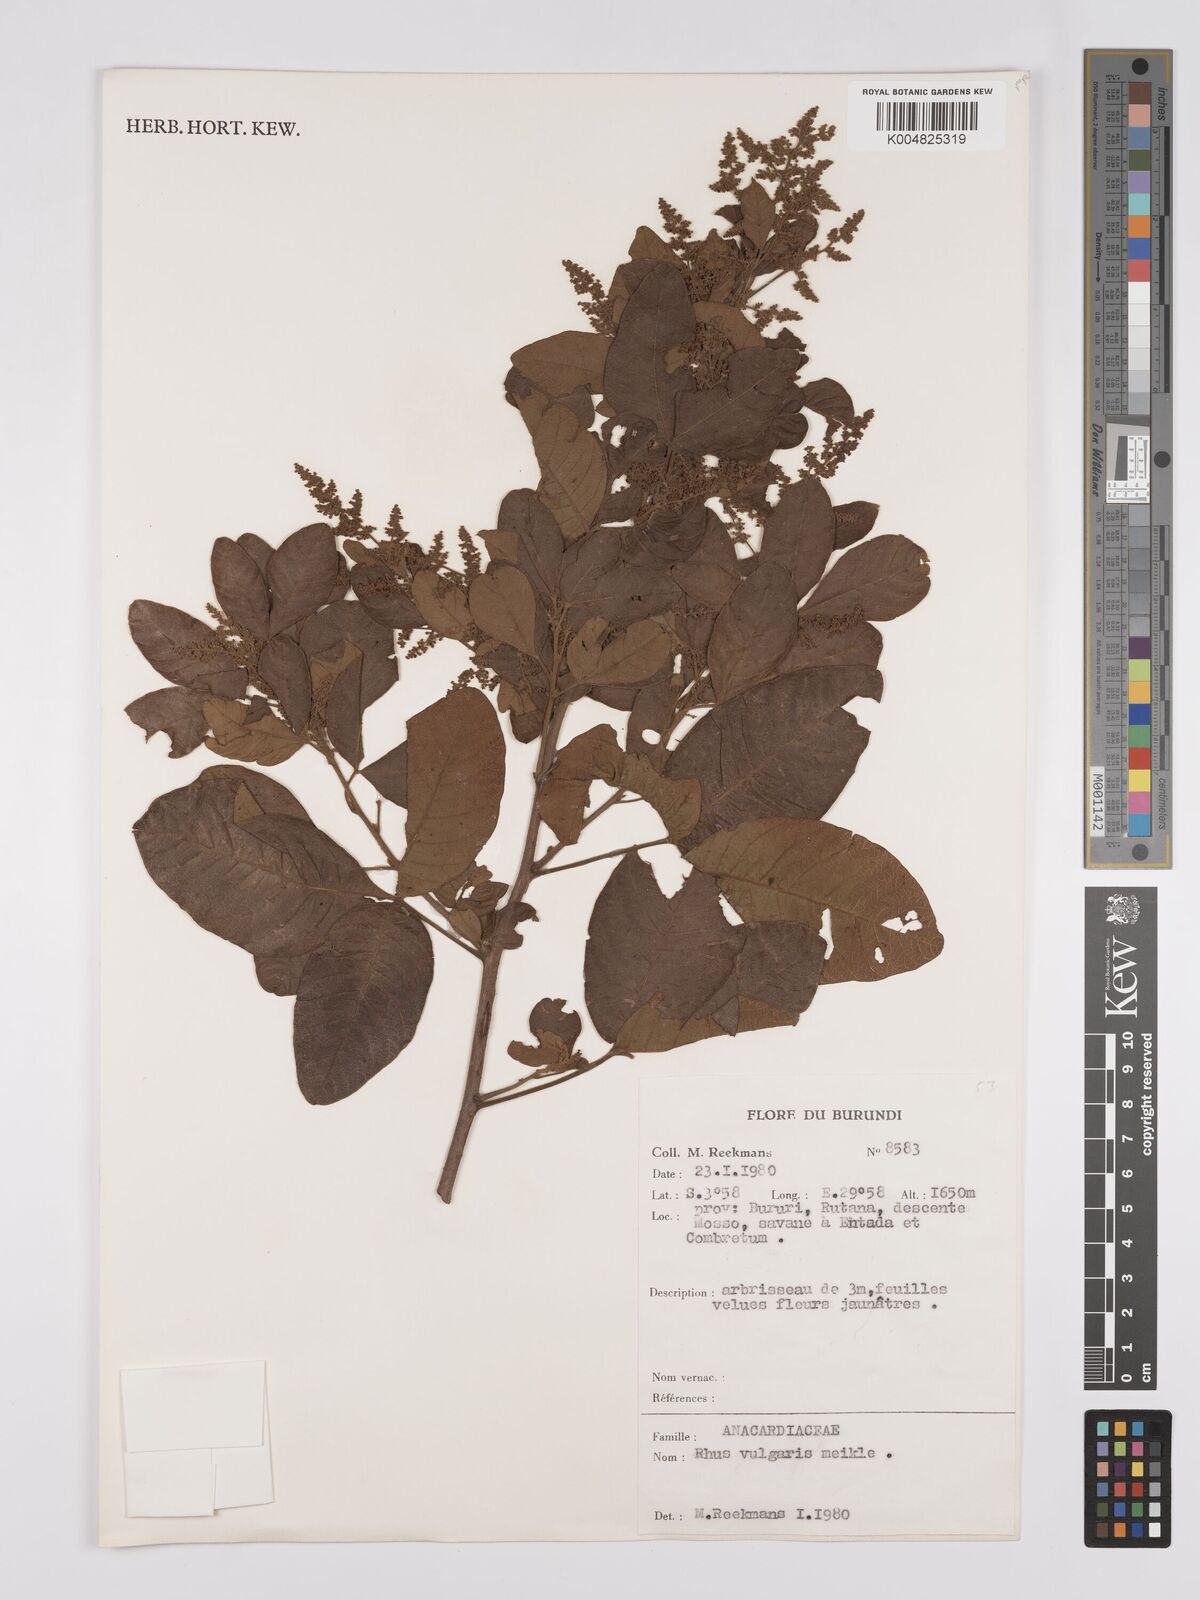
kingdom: Plantae
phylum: Tracheophyta
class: Magnoliopsida
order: Sapindales
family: Anacardiaceae
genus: Searsia
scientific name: Searsia pyroides
